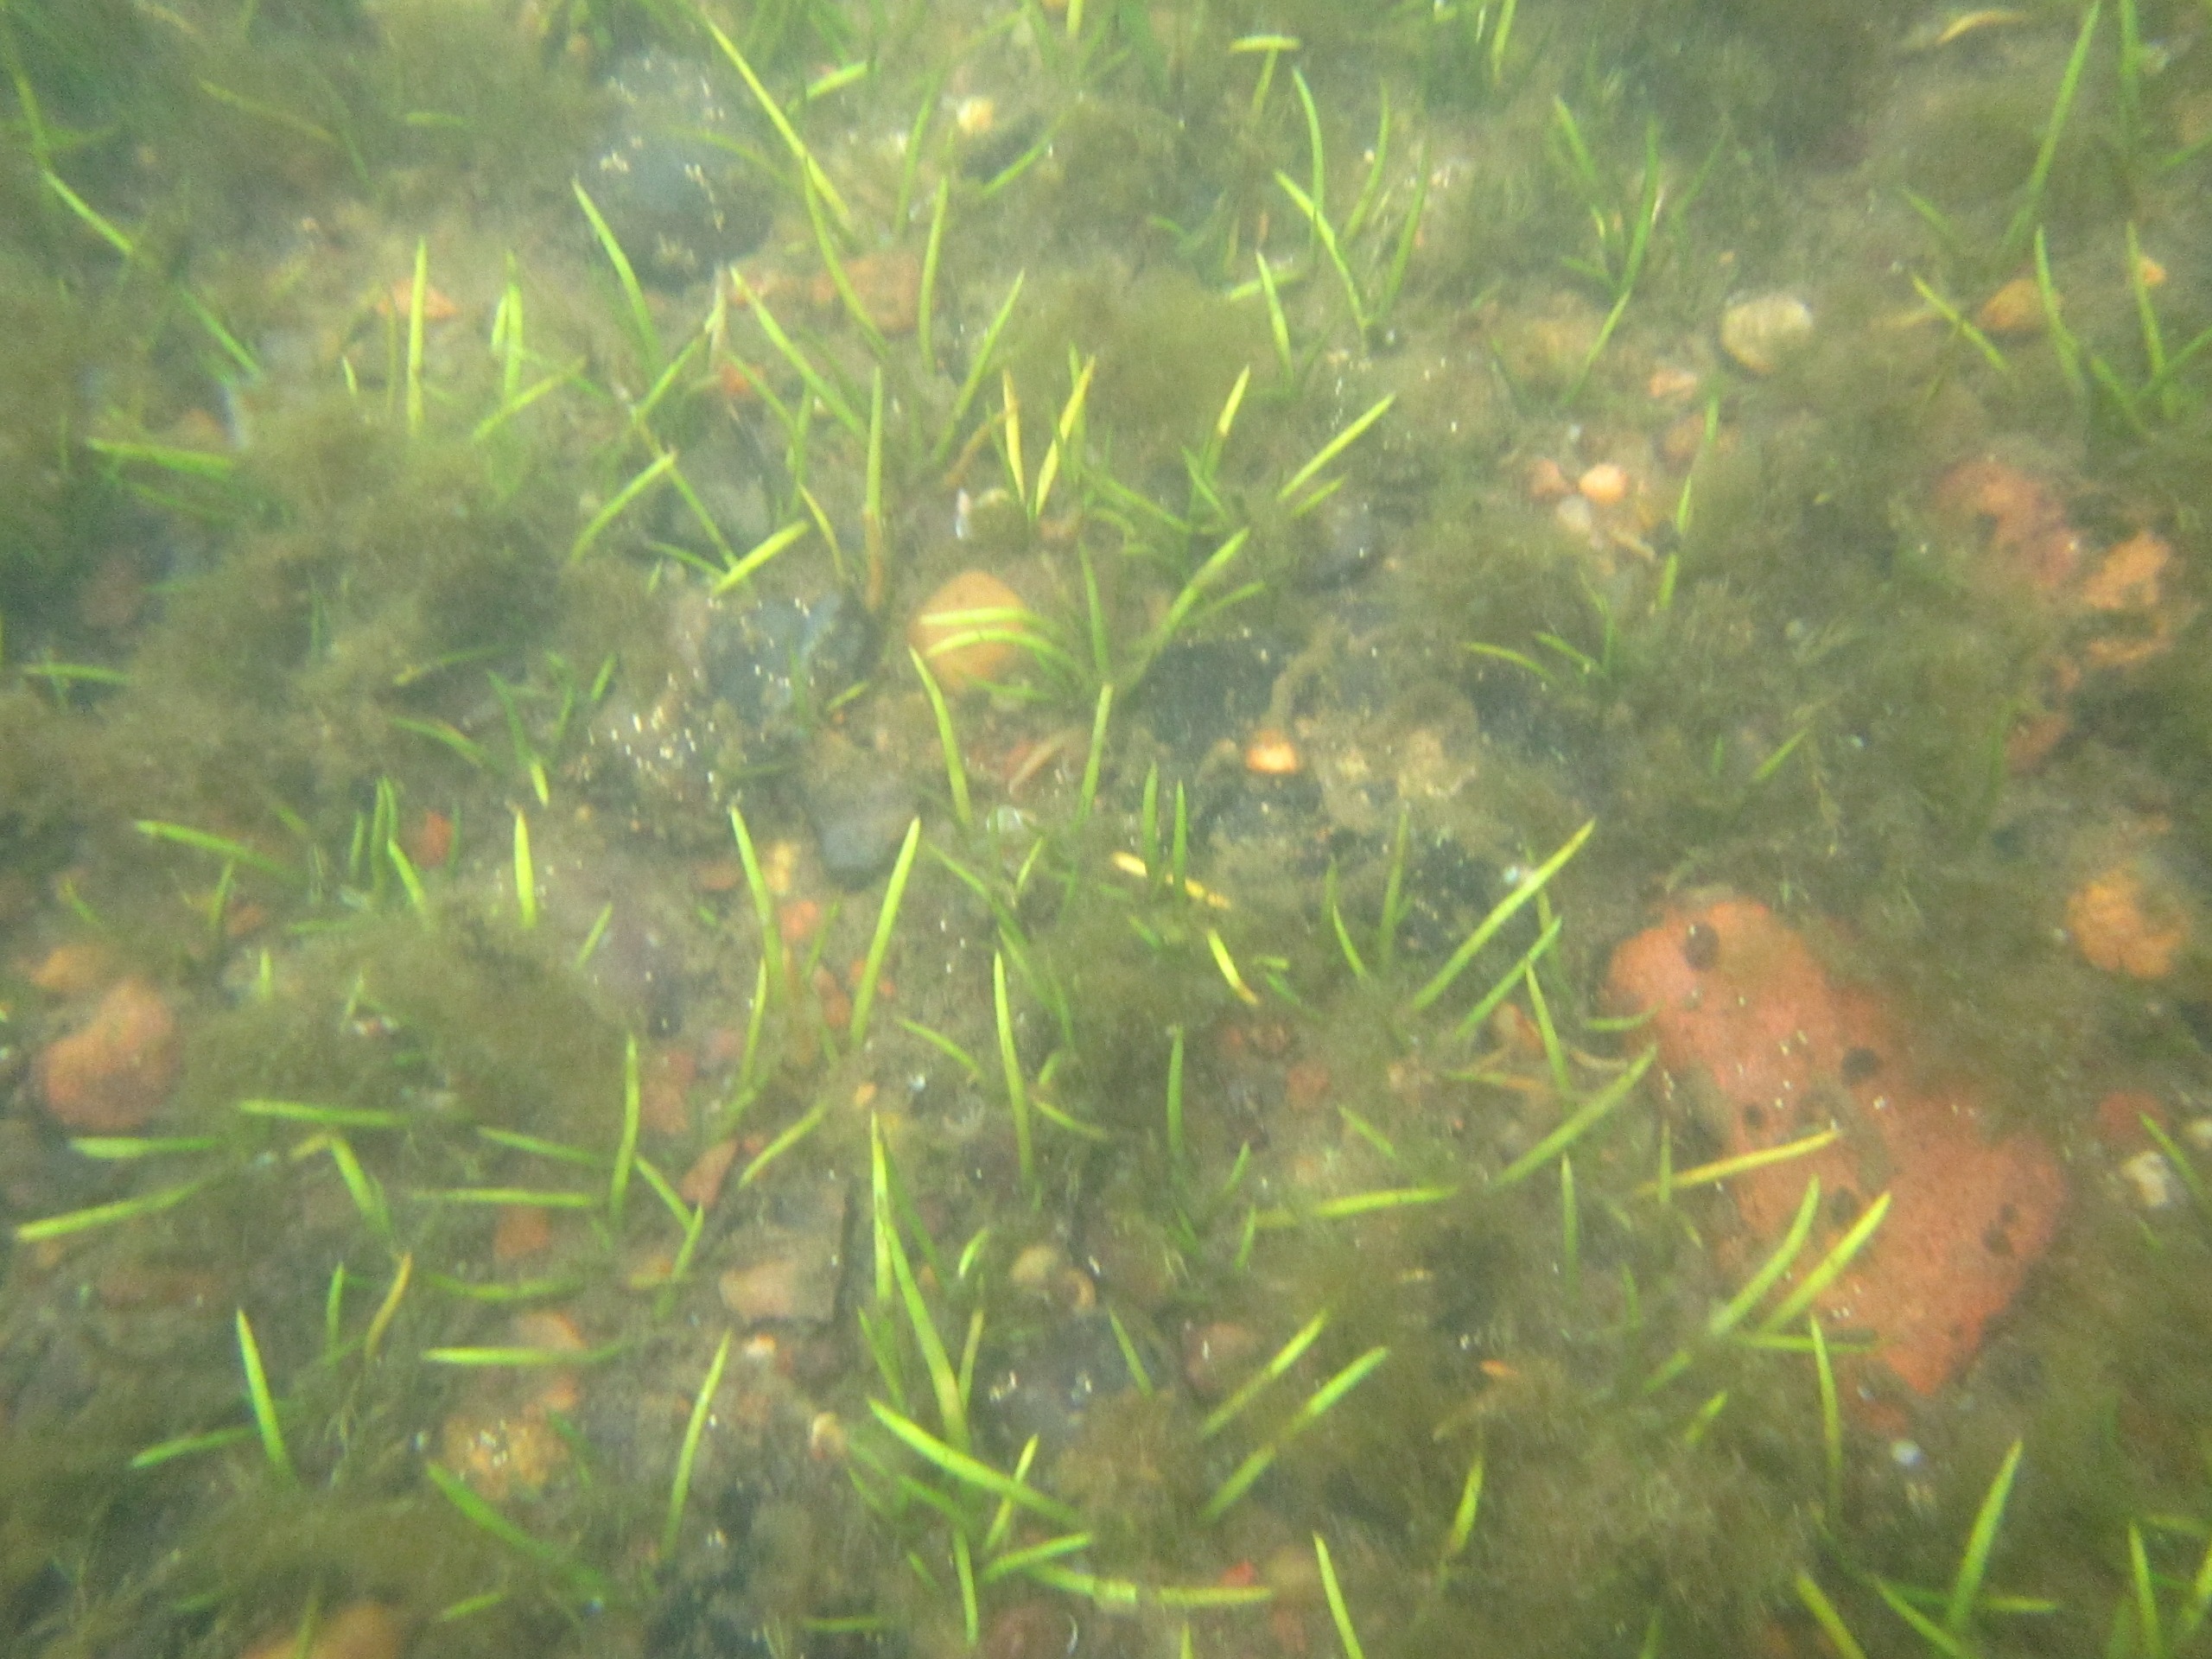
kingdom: Plantae
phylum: Tracheophyta
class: Magnoliopsida
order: Lamiales
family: Plantaginaceae
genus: Littorella
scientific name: Littorella uniflora
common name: Strandbo
